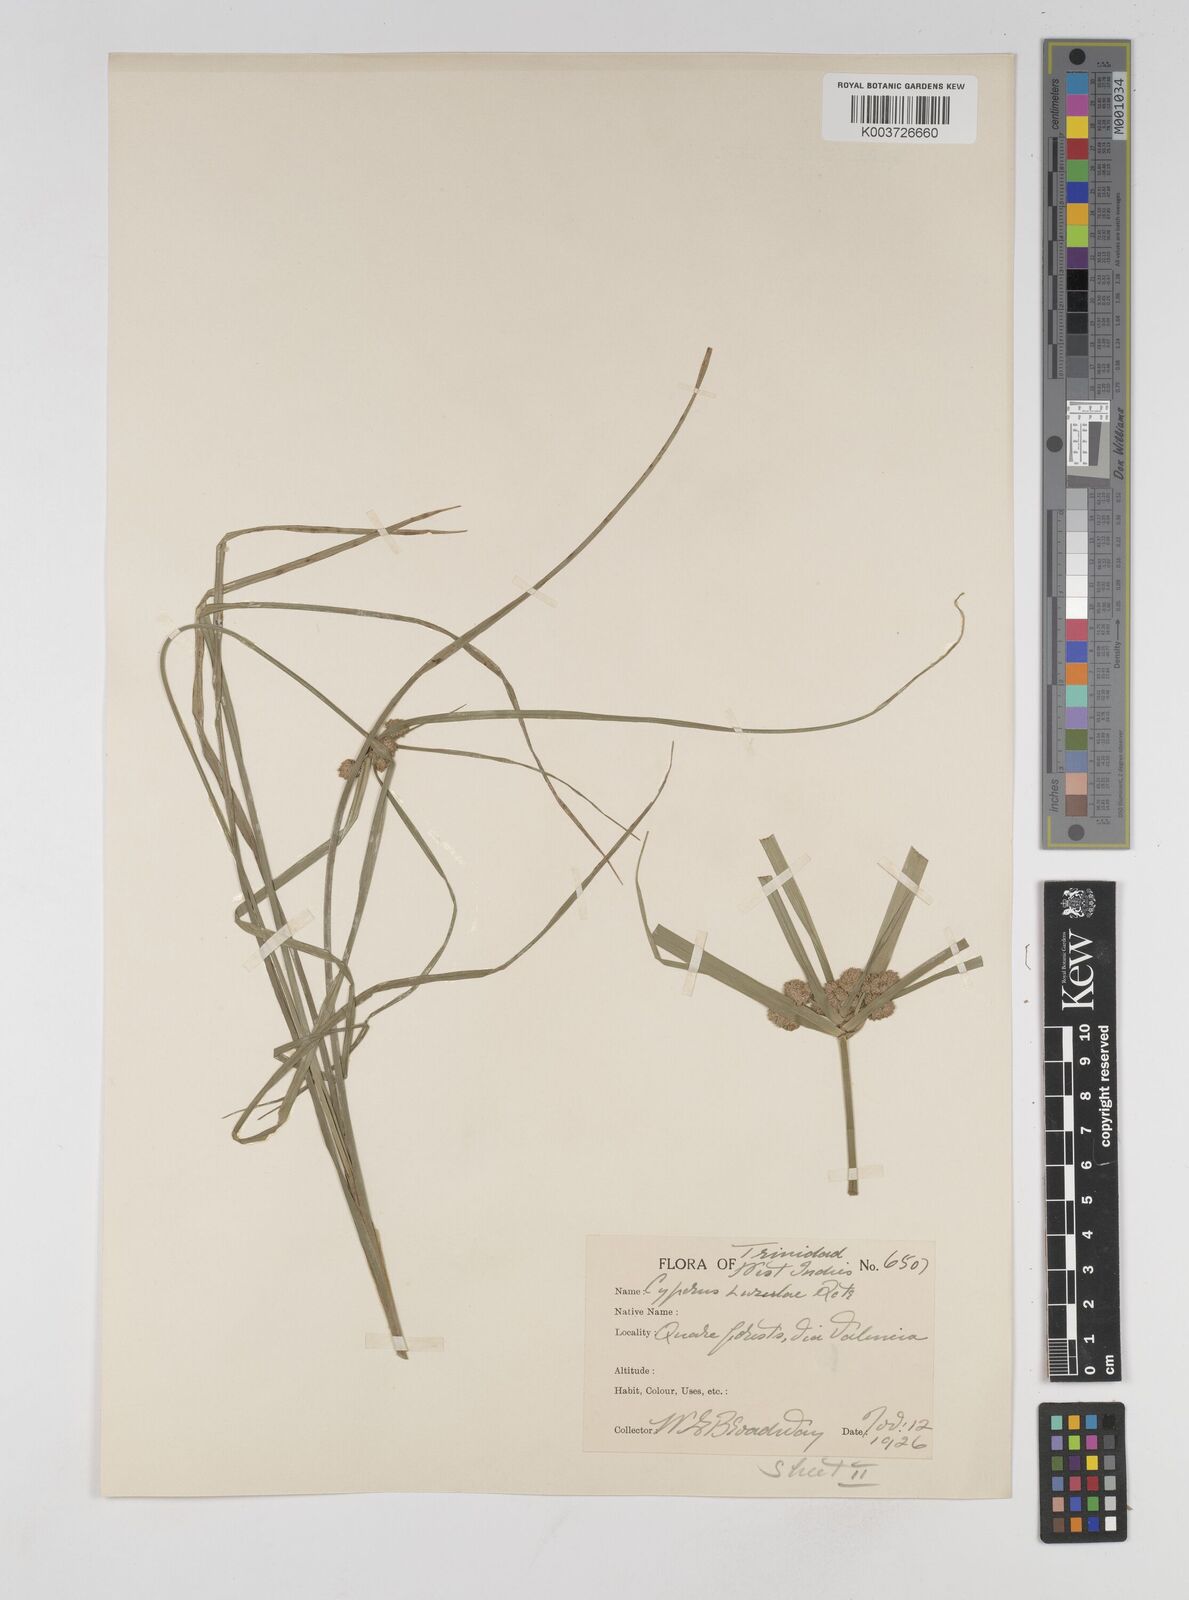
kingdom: Plantae
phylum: Tracheophyta
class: Liliopsida
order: Poales
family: Cyperaceae
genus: Cyperus
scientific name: Cyperus luzulae
